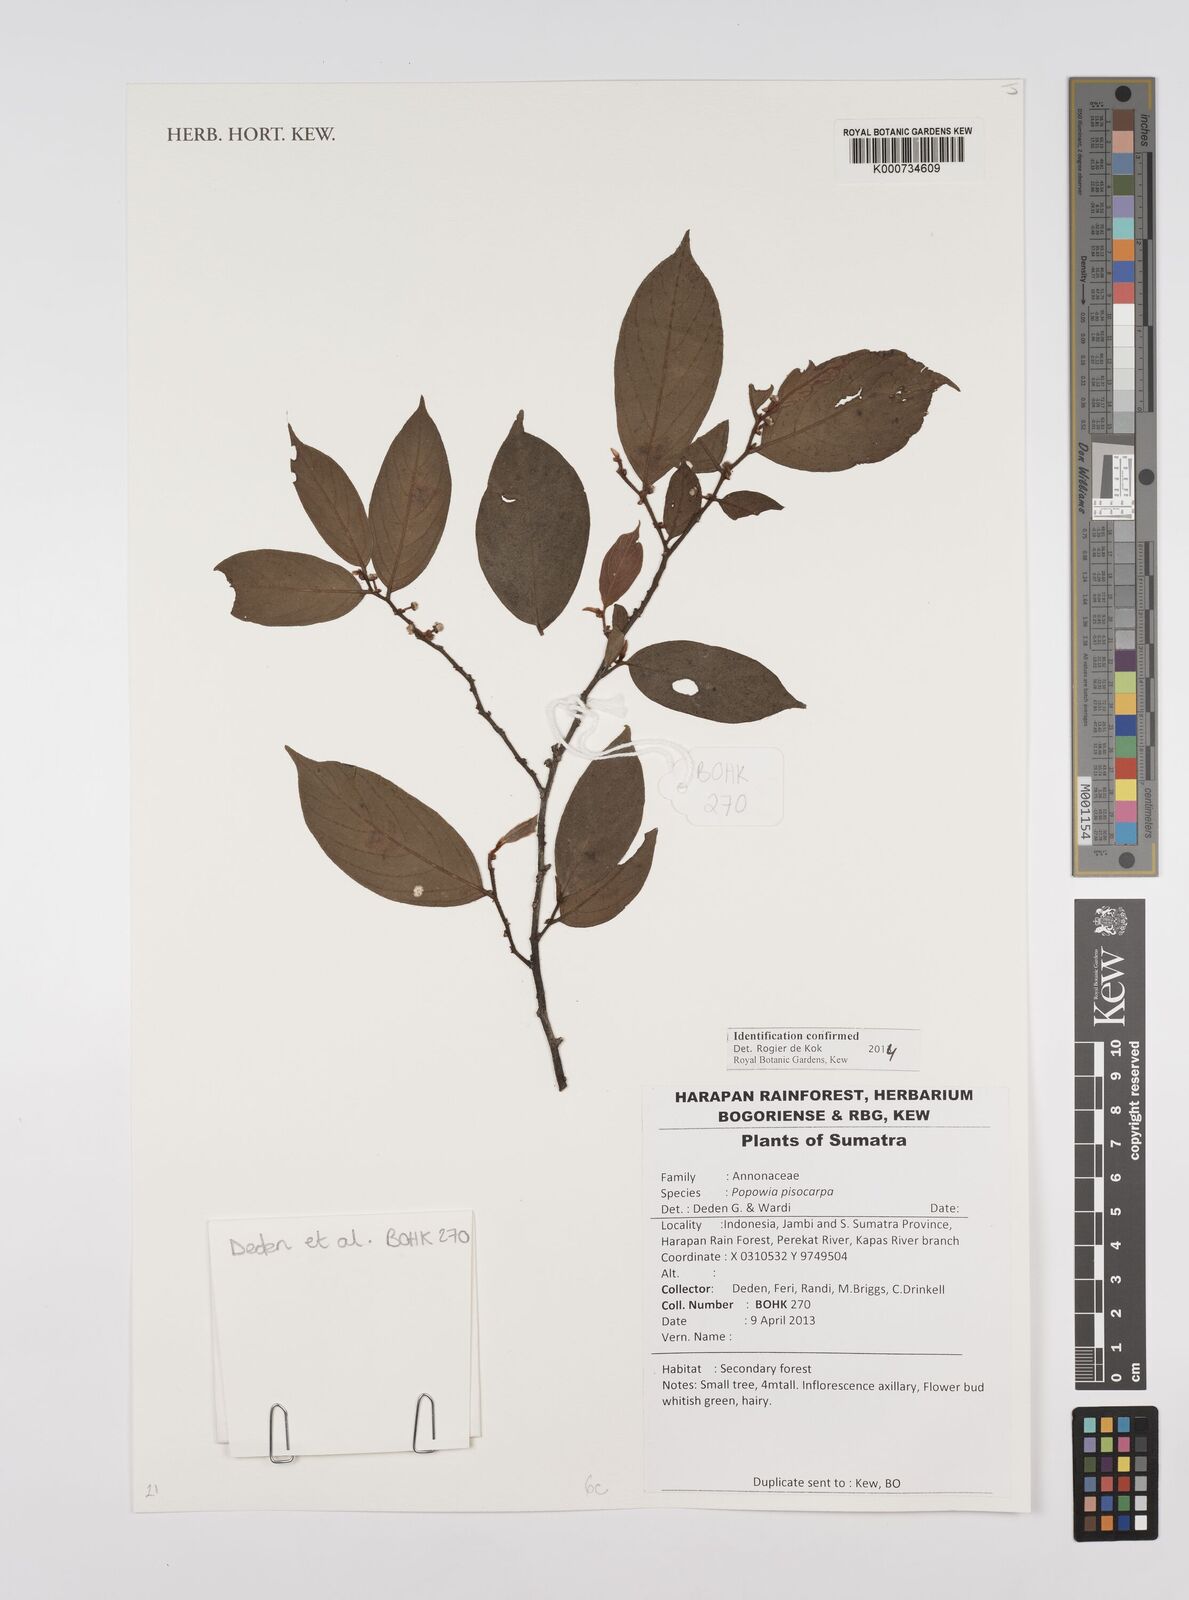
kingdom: Plantae
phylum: Tracheophyta
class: Magnoliopsida
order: Magnoliales
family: Annonaceae
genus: Popowia
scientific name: Popowia
